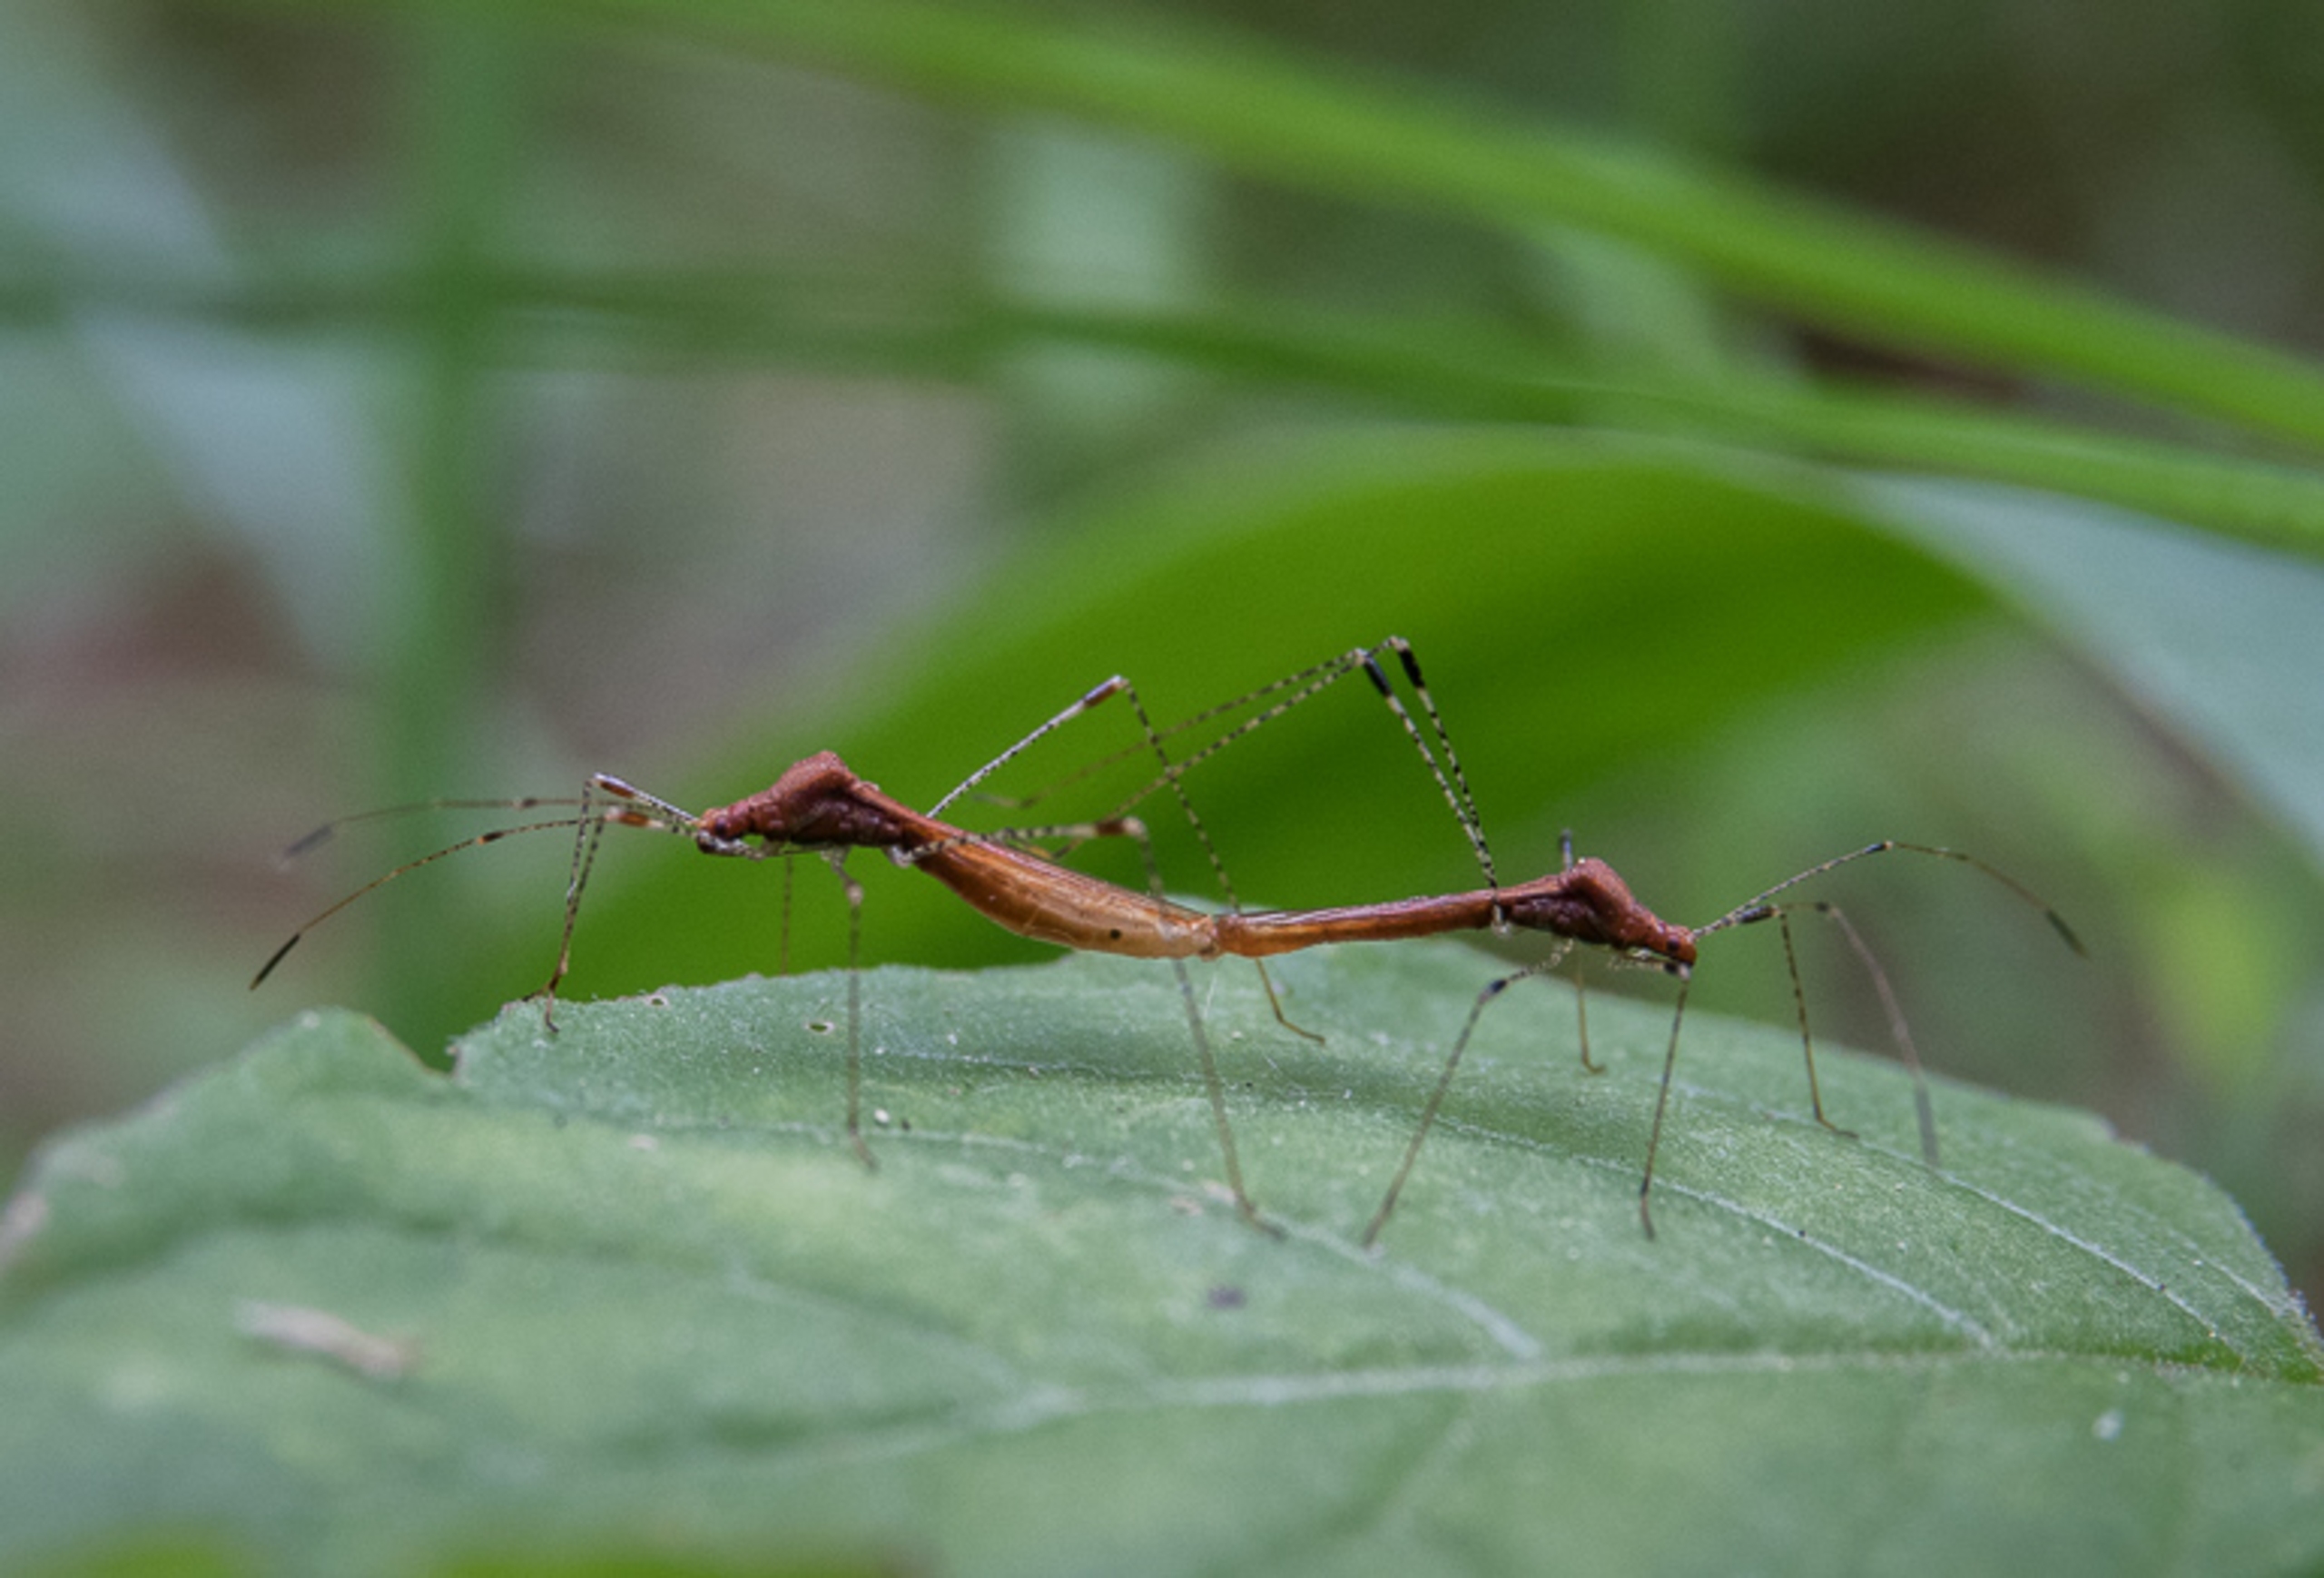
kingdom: Animalia
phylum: Arthropoda
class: Insecta
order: Hemiptera
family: Berytidae
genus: Metatropis
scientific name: Metatropis rufescens
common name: Steffensurttæge
